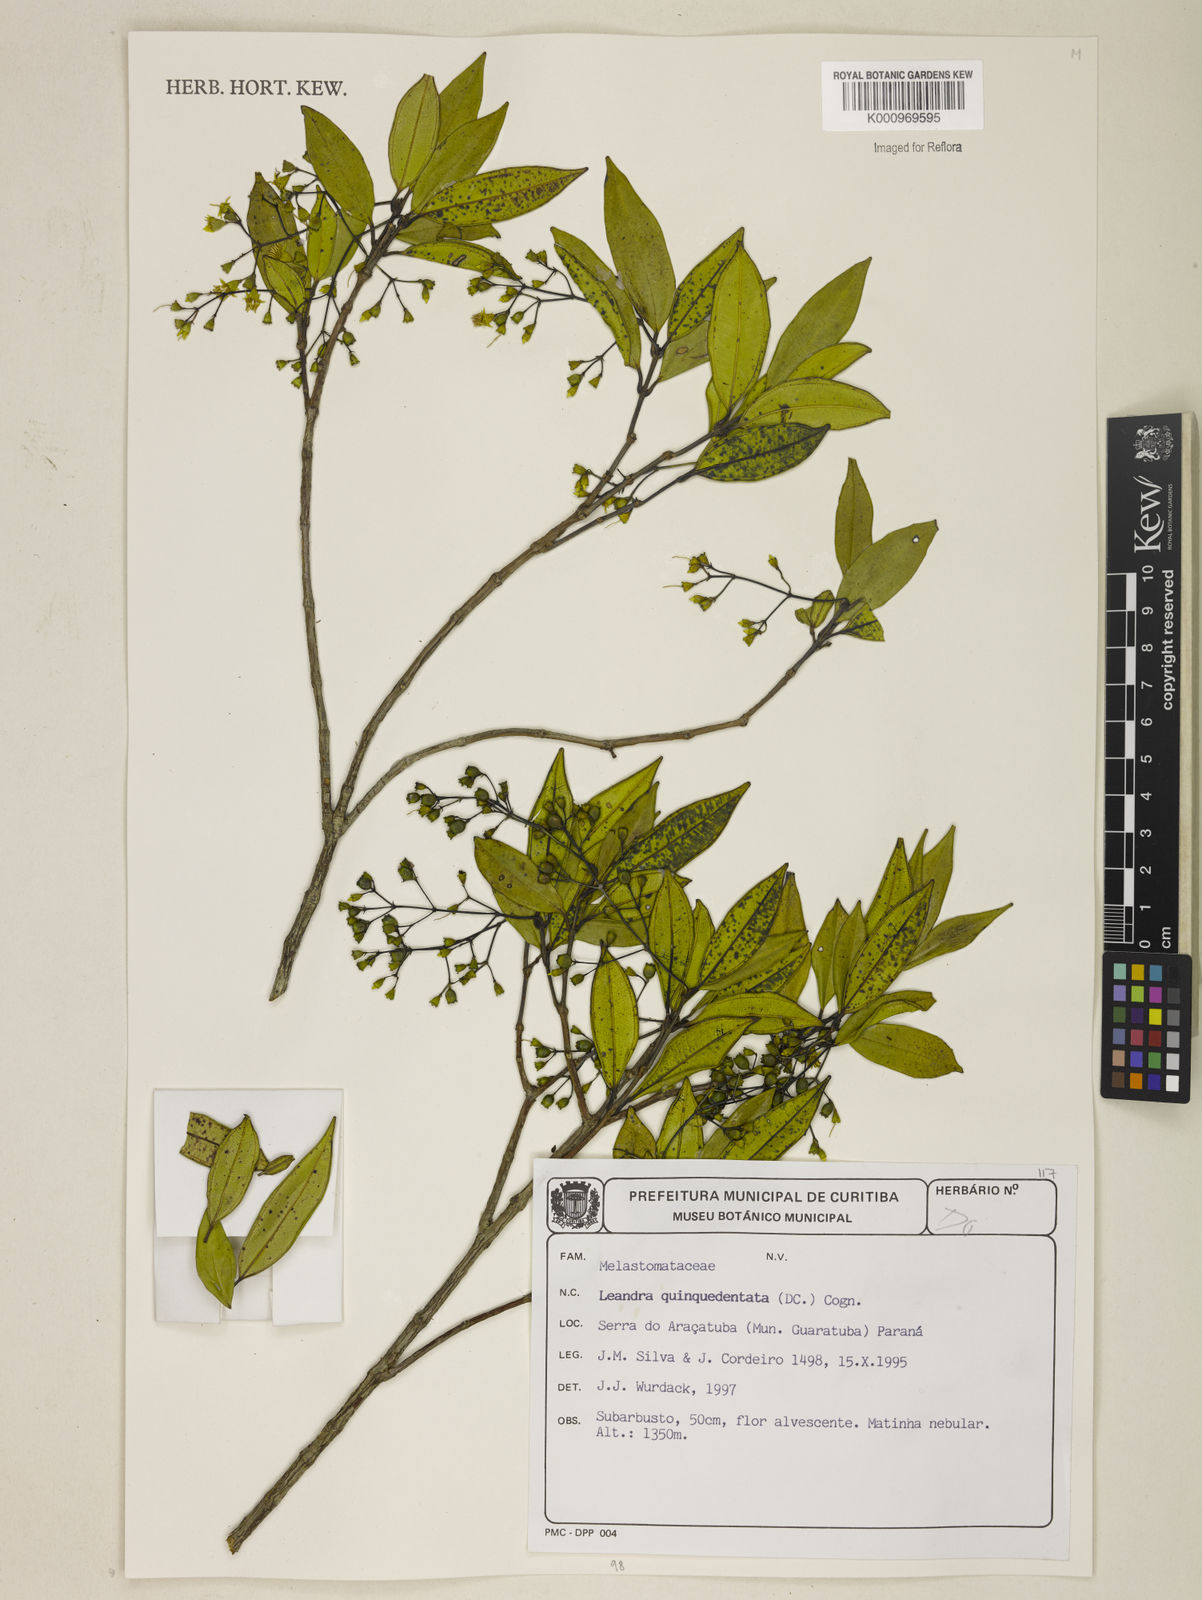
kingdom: Plantae
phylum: Tracheophyta
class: Magnoliopsida
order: Myrtales
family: Melastomataceae
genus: Miconia
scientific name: Miconia quinquedentata
